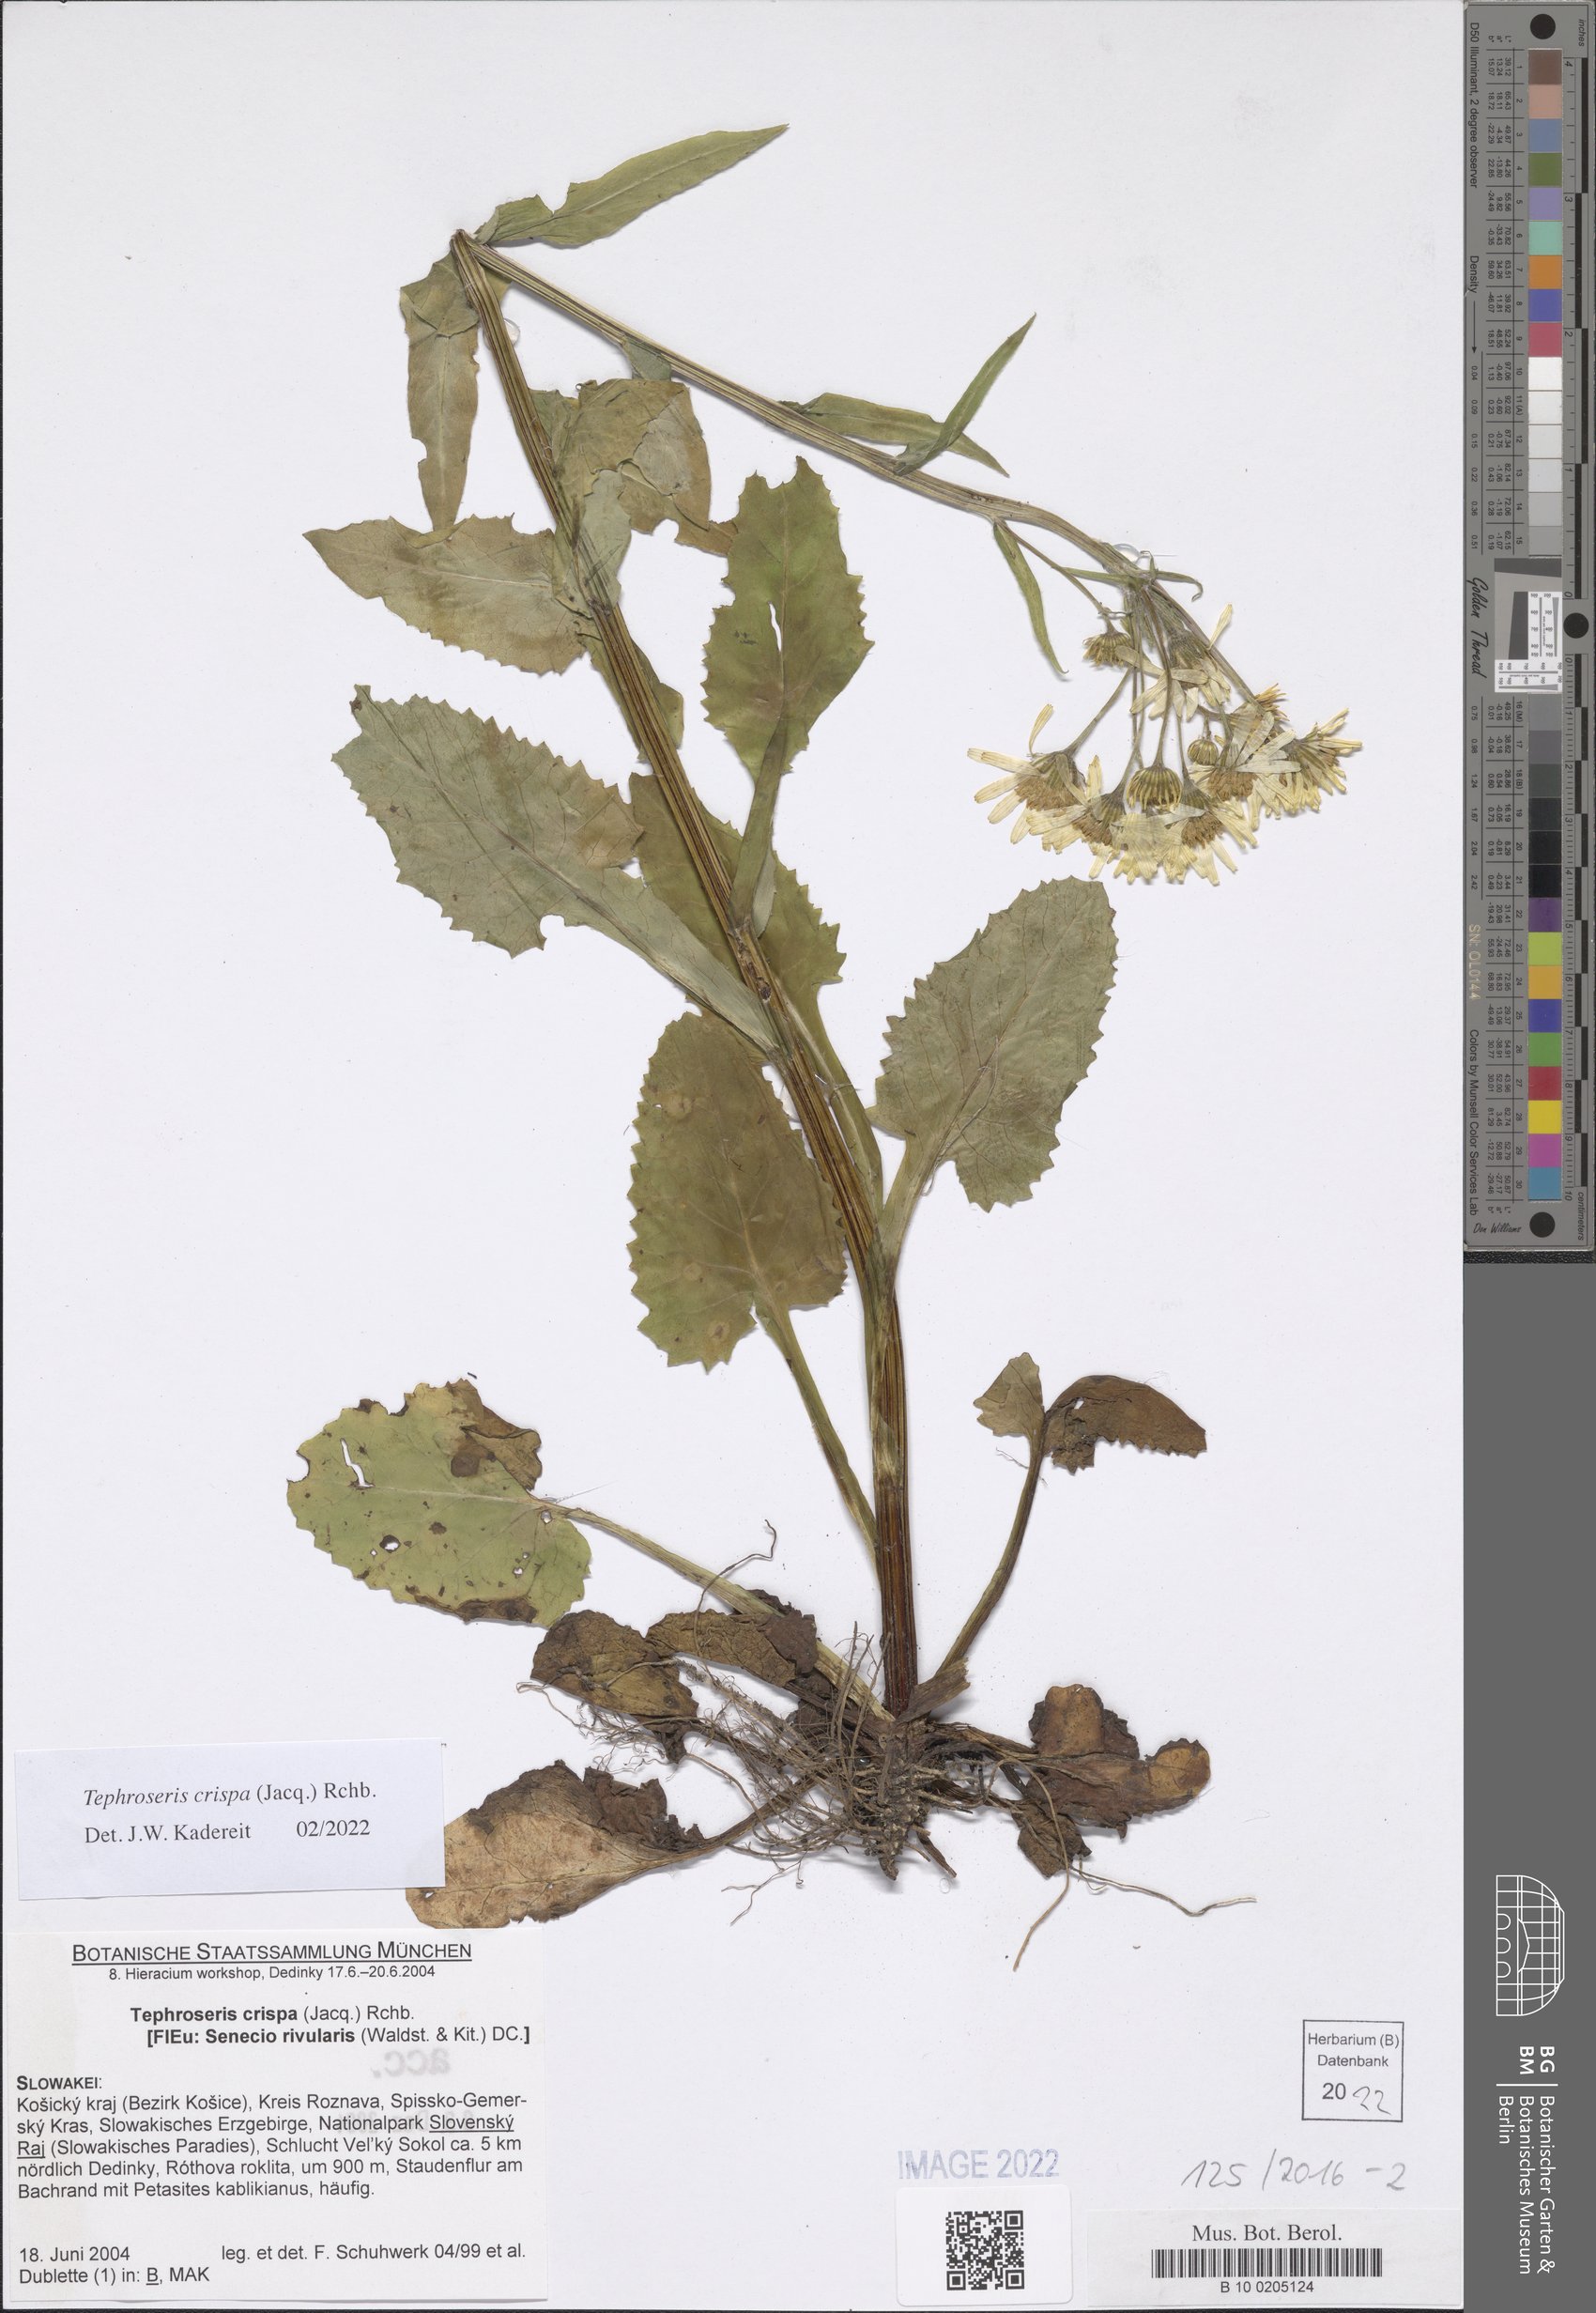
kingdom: Plantae
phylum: Tracheophyta
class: Magnoliopsida
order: Asterales
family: Asteraceae
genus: Tephroseris
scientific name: Tephroseris crispa
